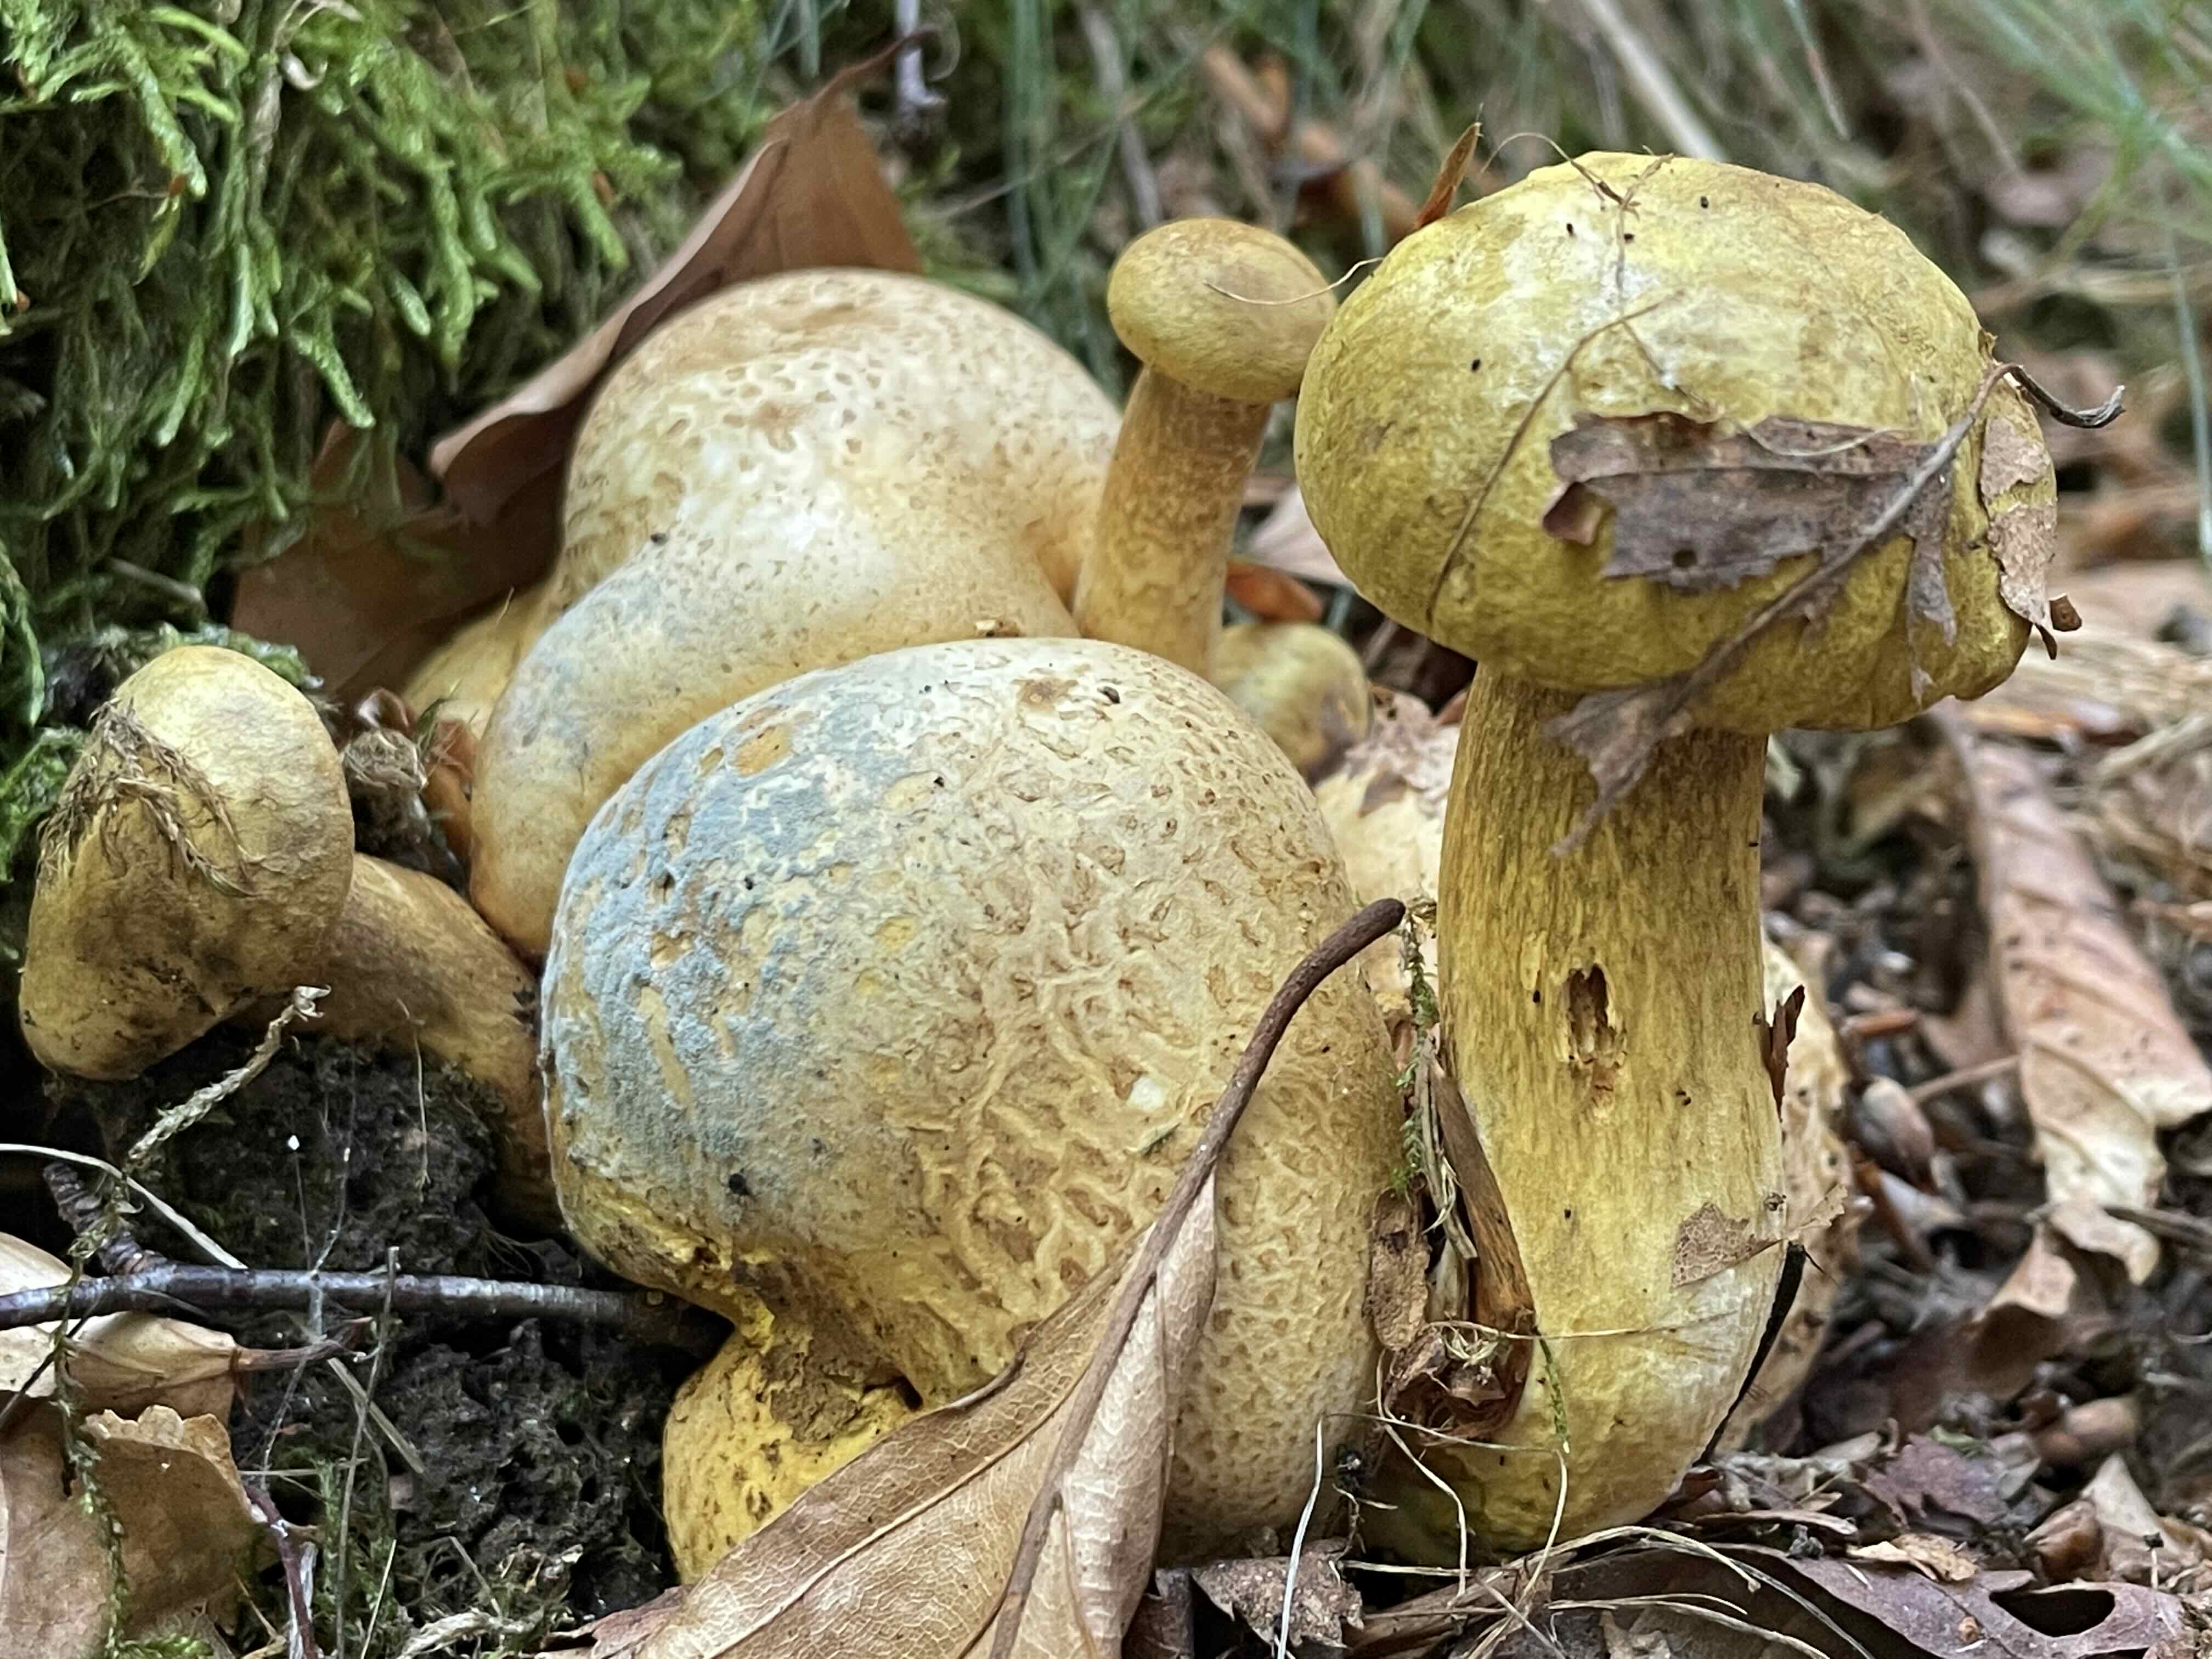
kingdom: Fungi
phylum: Basidiomycota
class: Agaricomycetes
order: Boletales
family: Boletaceae
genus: Pseudoboletus
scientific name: Pseudoboletus parasiticus
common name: snyltende rørhat
